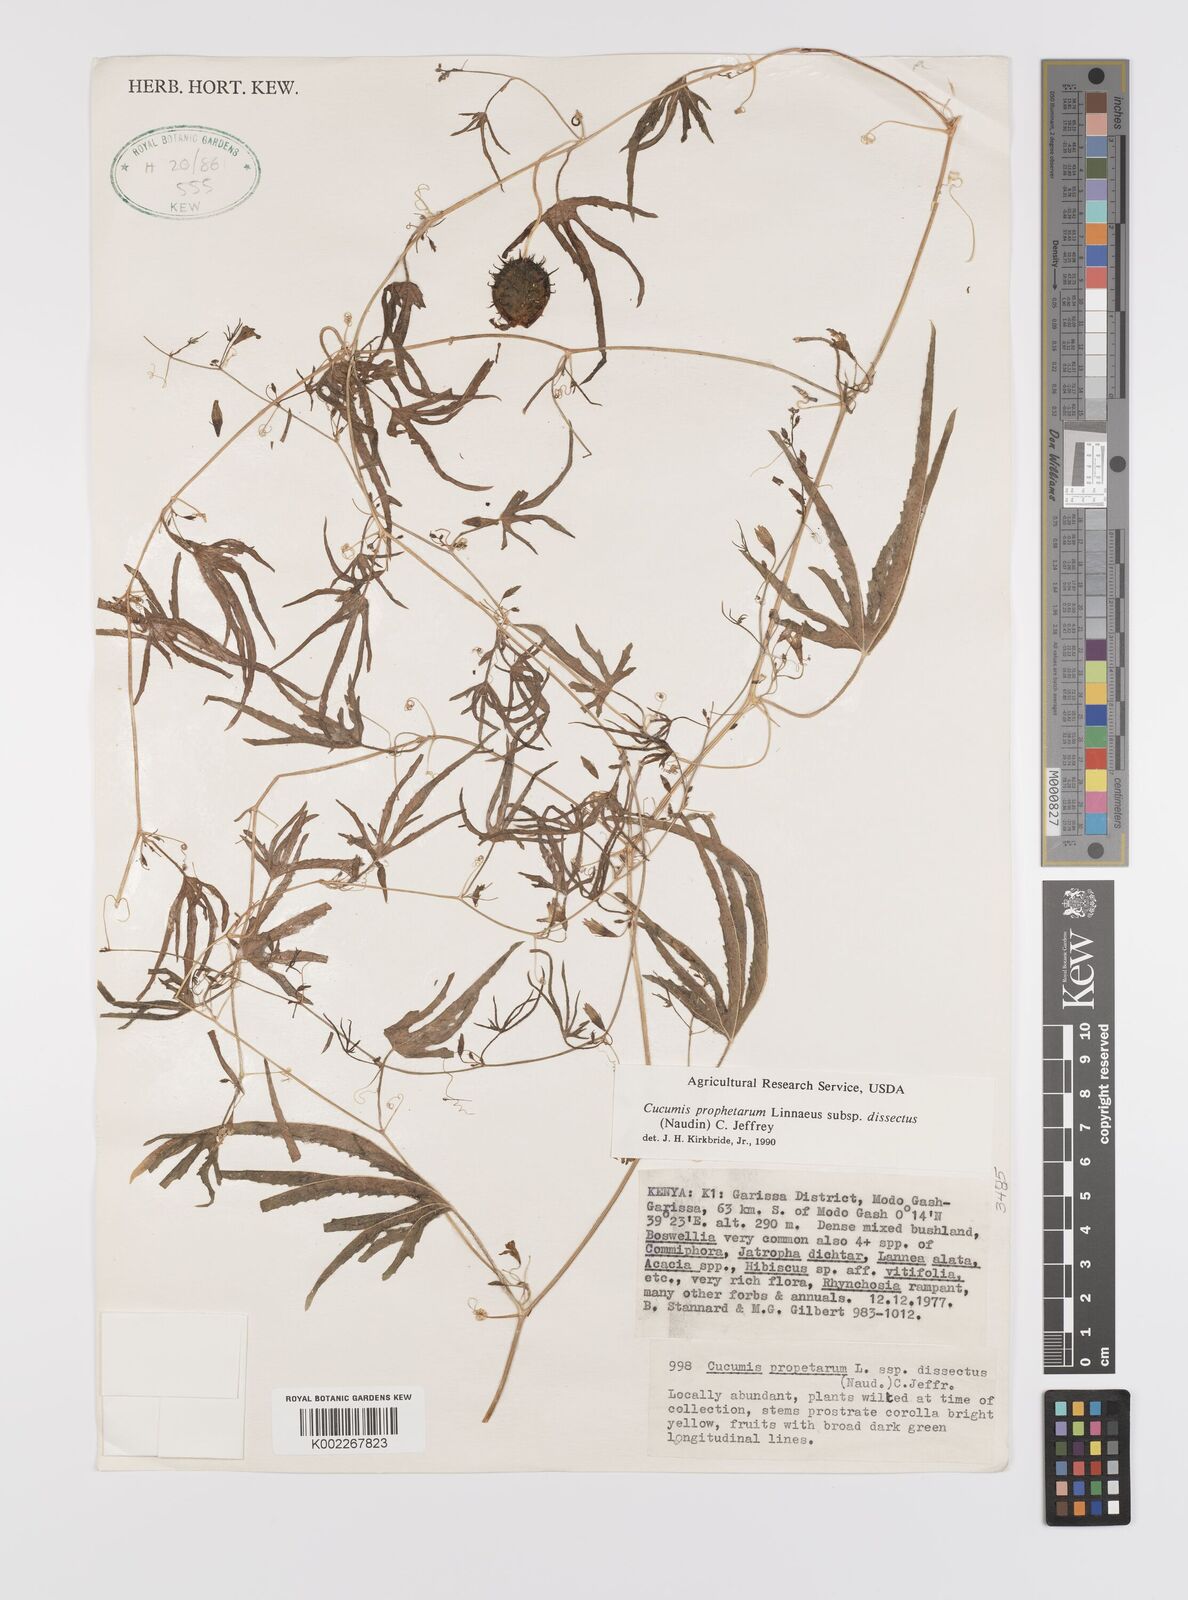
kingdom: Plantae
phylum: Tracheophyta
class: Magnoliopsida
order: Cucurbitales
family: Cucurbitaceae
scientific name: Cucurbitaceae
